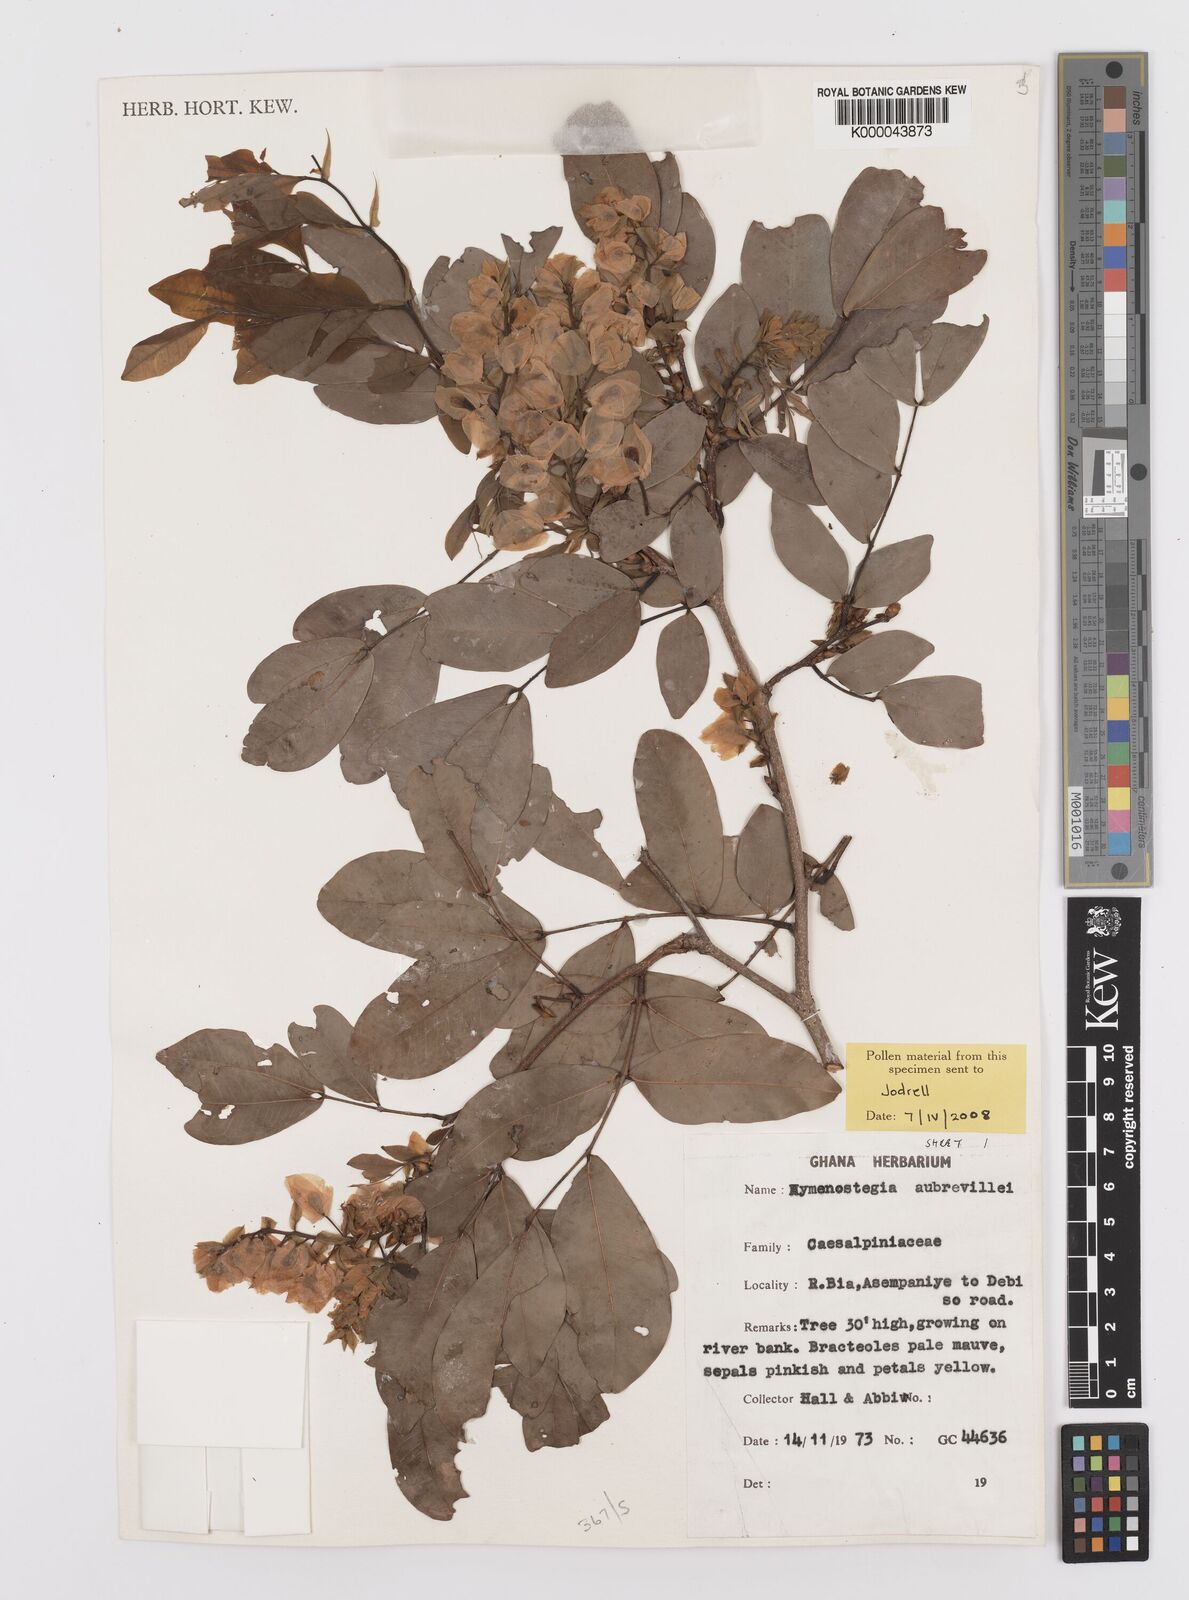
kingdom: Plantae
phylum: Tracheophyta
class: Magnoliopsida
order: Fabales
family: Fabaceae
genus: Hymenostegia
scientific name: Hymenostegia aubrevillei
